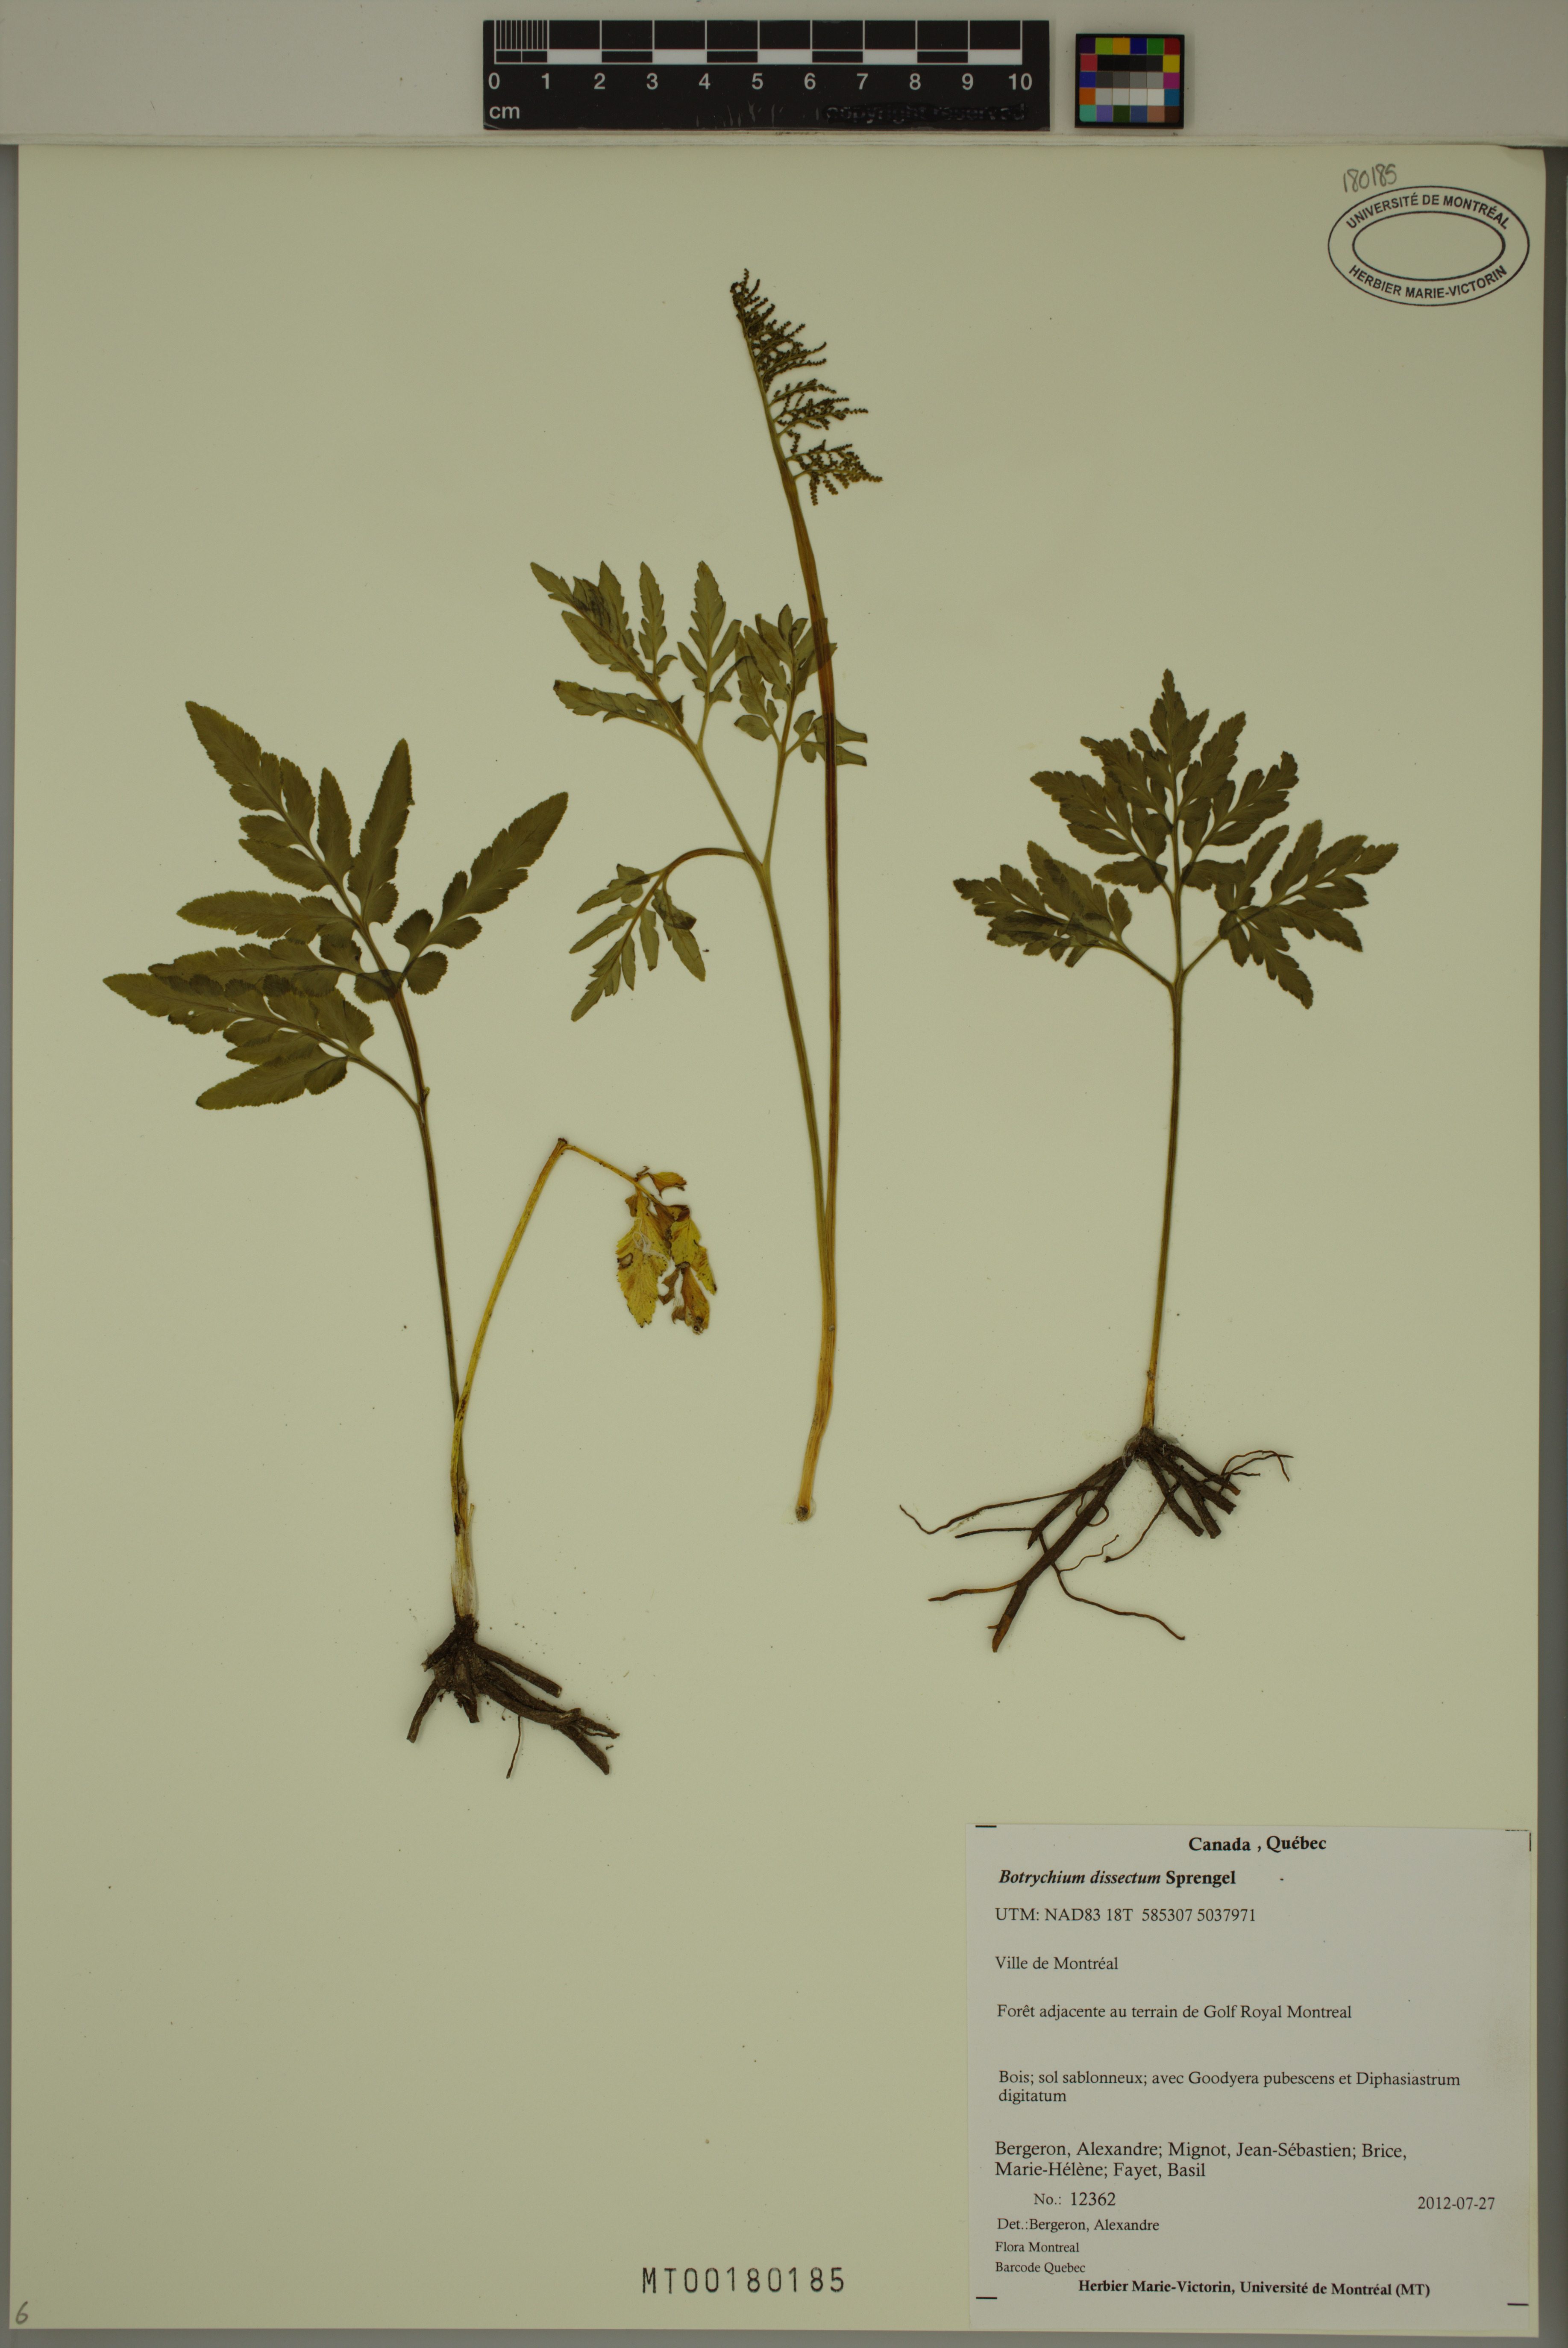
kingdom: Plantae
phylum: Tracheophyta
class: Polypodiopsida
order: Ophioglossales
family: Ophioglossaceae
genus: Sceptridium
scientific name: Sceptridium dissectum
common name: Cut-leaved grapefern
